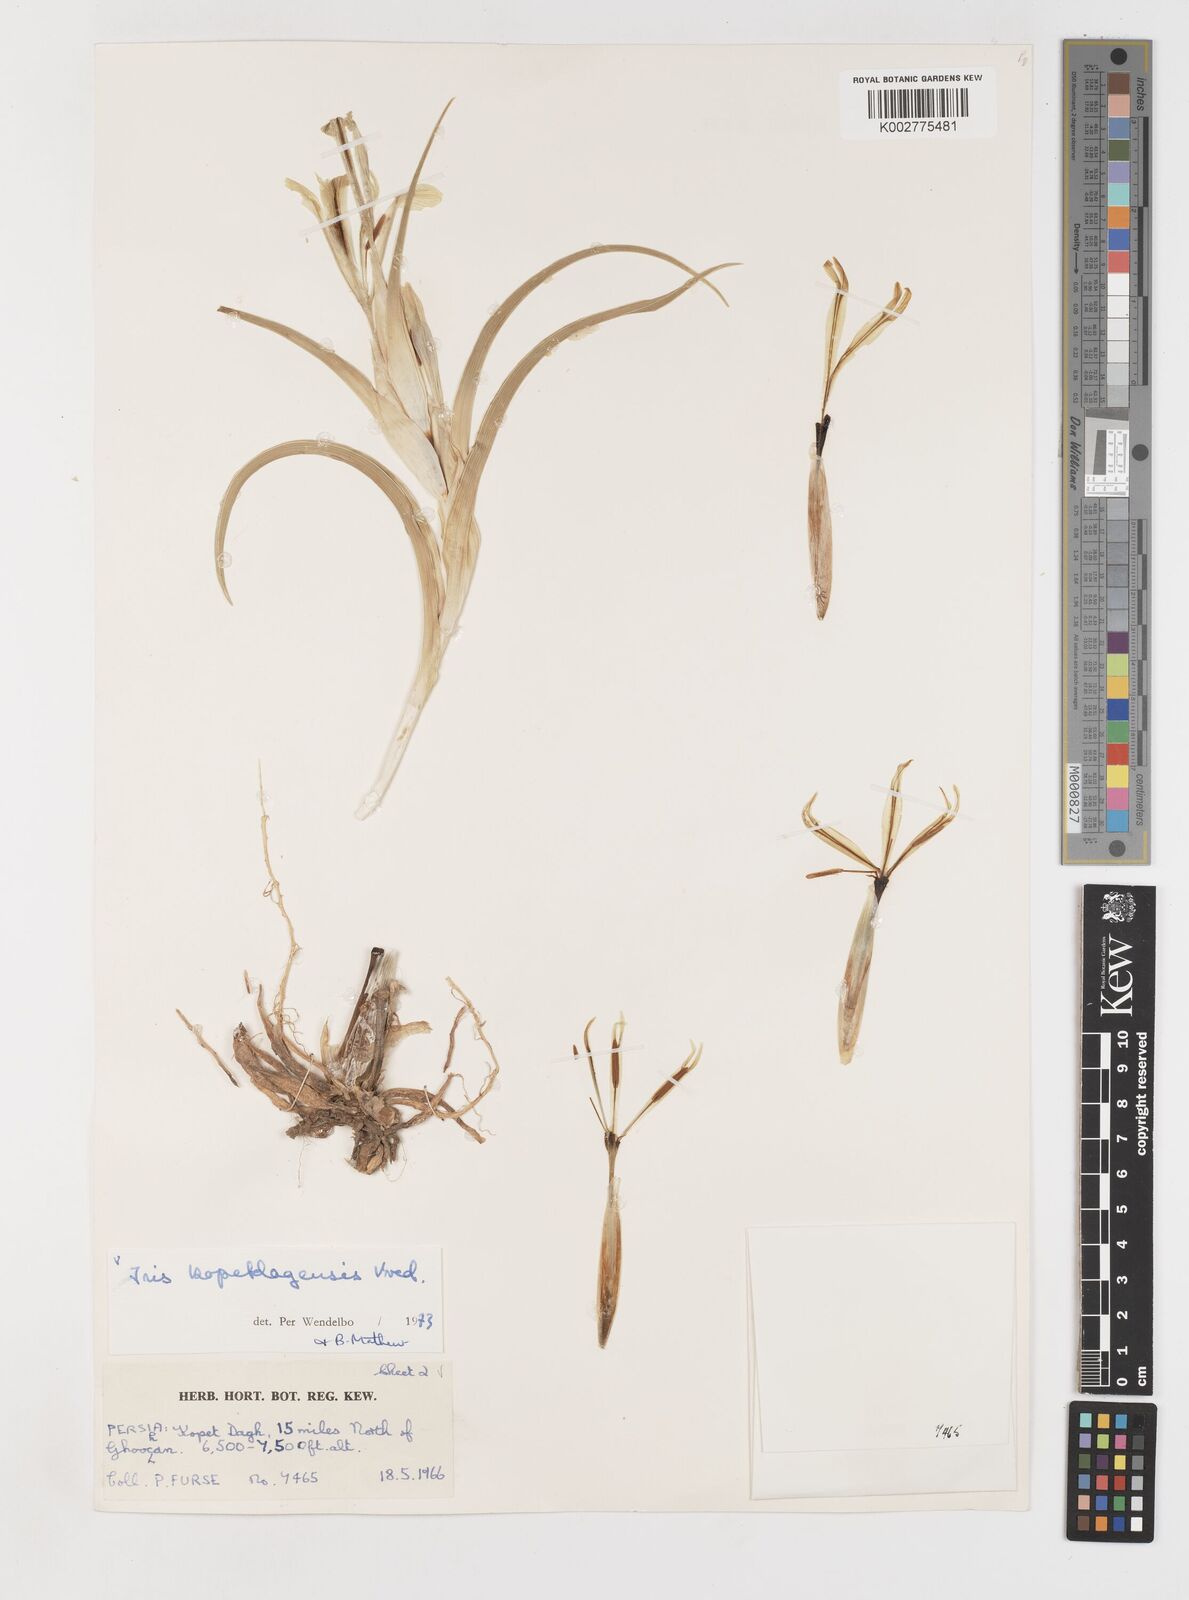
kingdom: Plantae
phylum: Tracheophyta
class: Liliopsida
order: Asparagales
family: Iridaceae
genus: Iris
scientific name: Iris kopetdagensis
